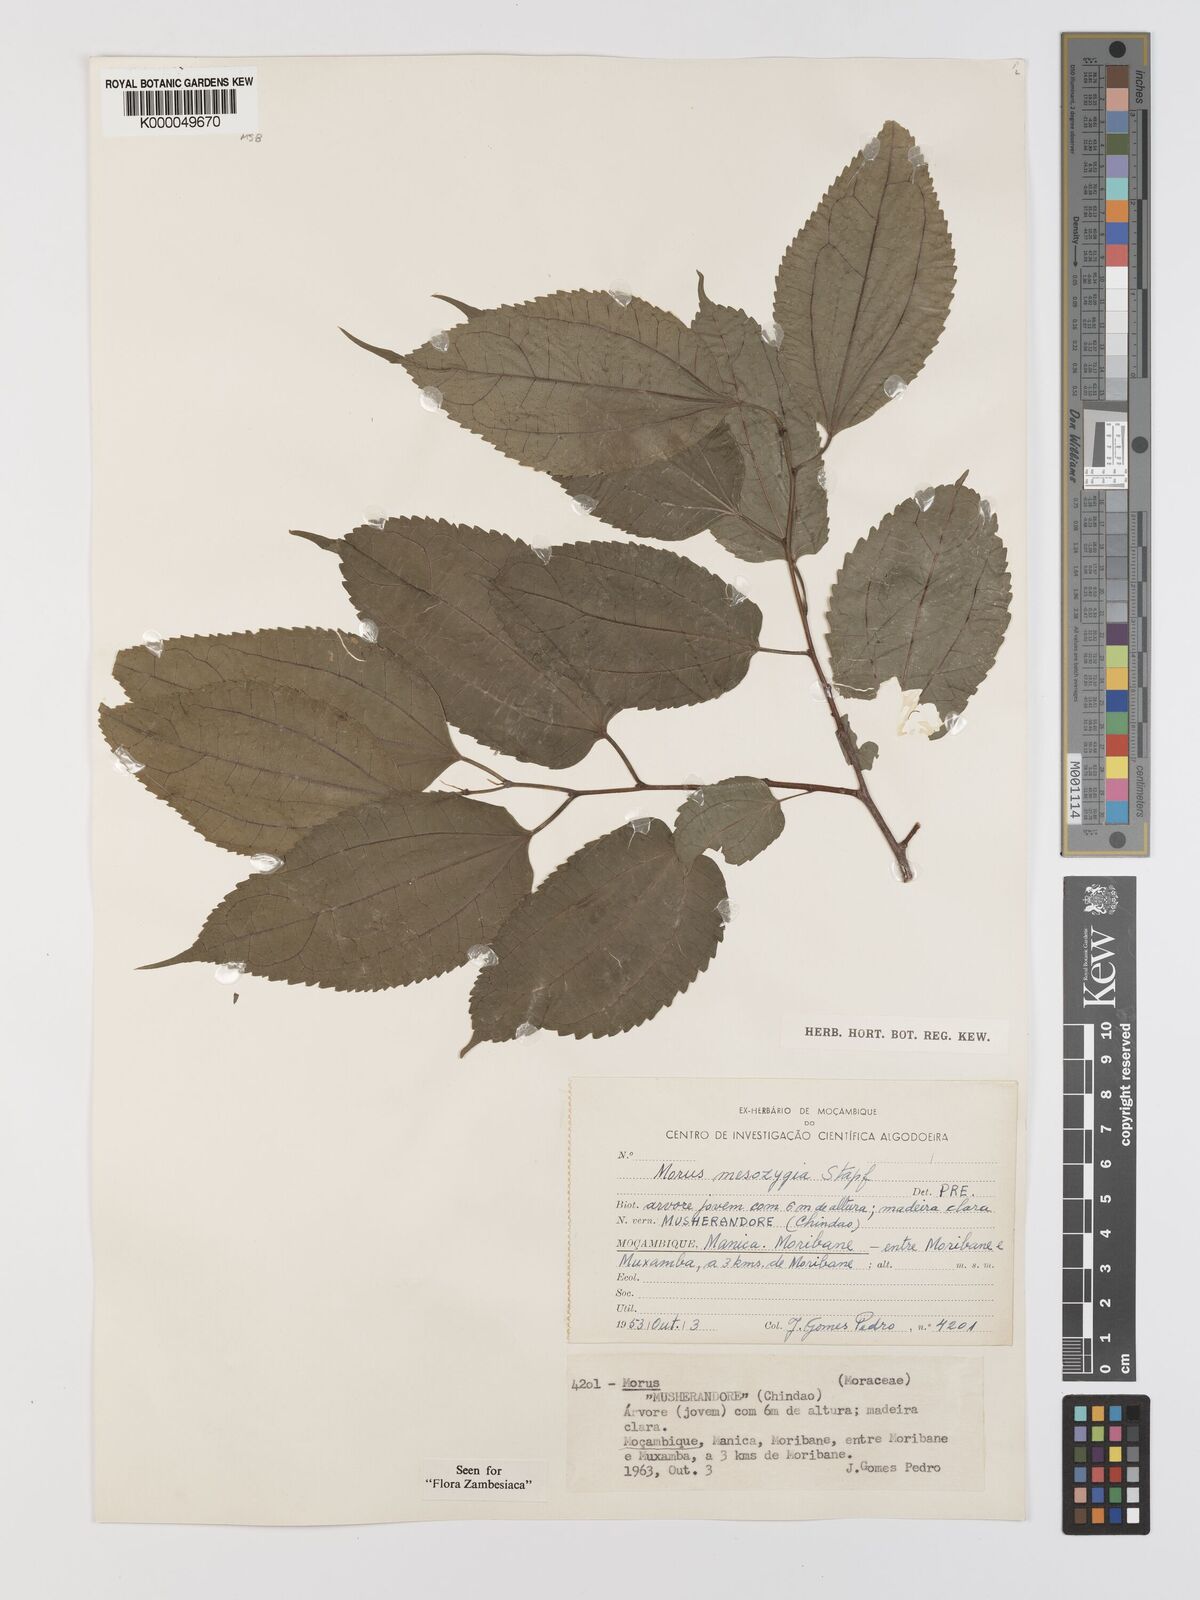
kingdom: Plantae
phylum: Tracheophyta
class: Magnoliopsida
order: Rosales
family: Moraceae
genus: Afromorus
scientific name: Afromorus mesozygia
